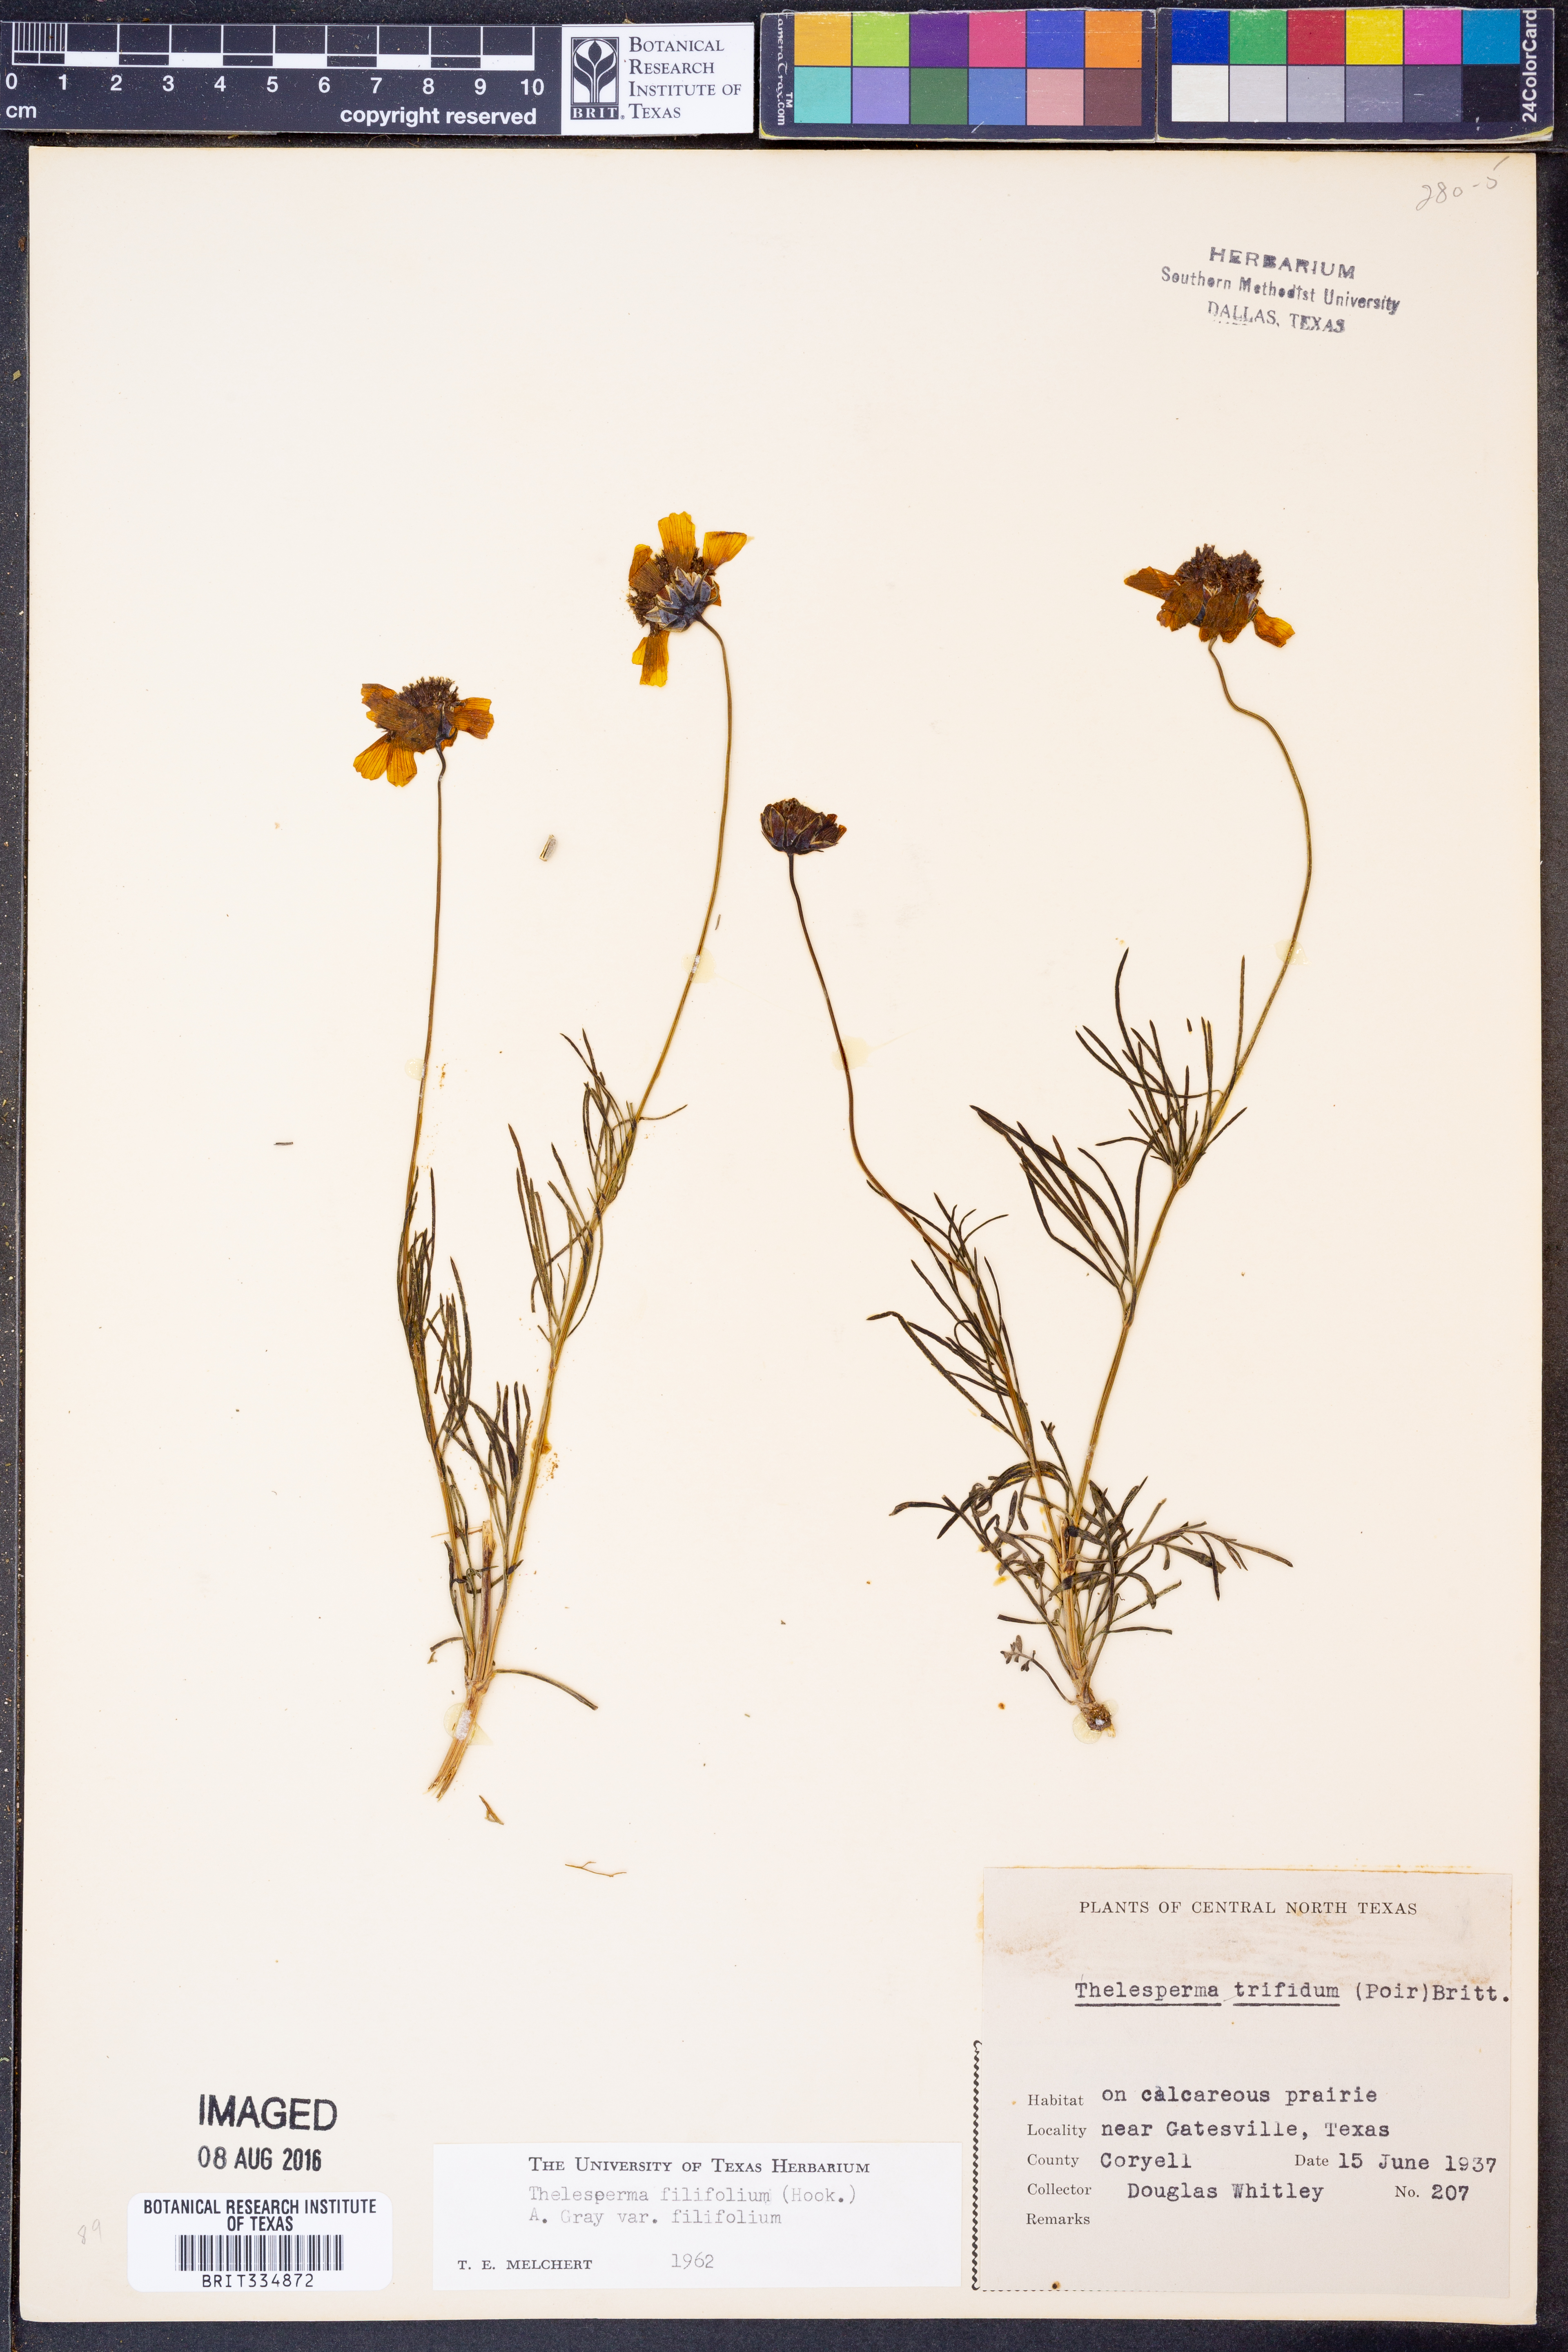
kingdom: Plantae
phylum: Tracheophyta
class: Magnoliopsida
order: Asterales
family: Asteraceae
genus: Thelesperma
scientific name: Thelesperma filifolium
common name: Stiff greenthread
